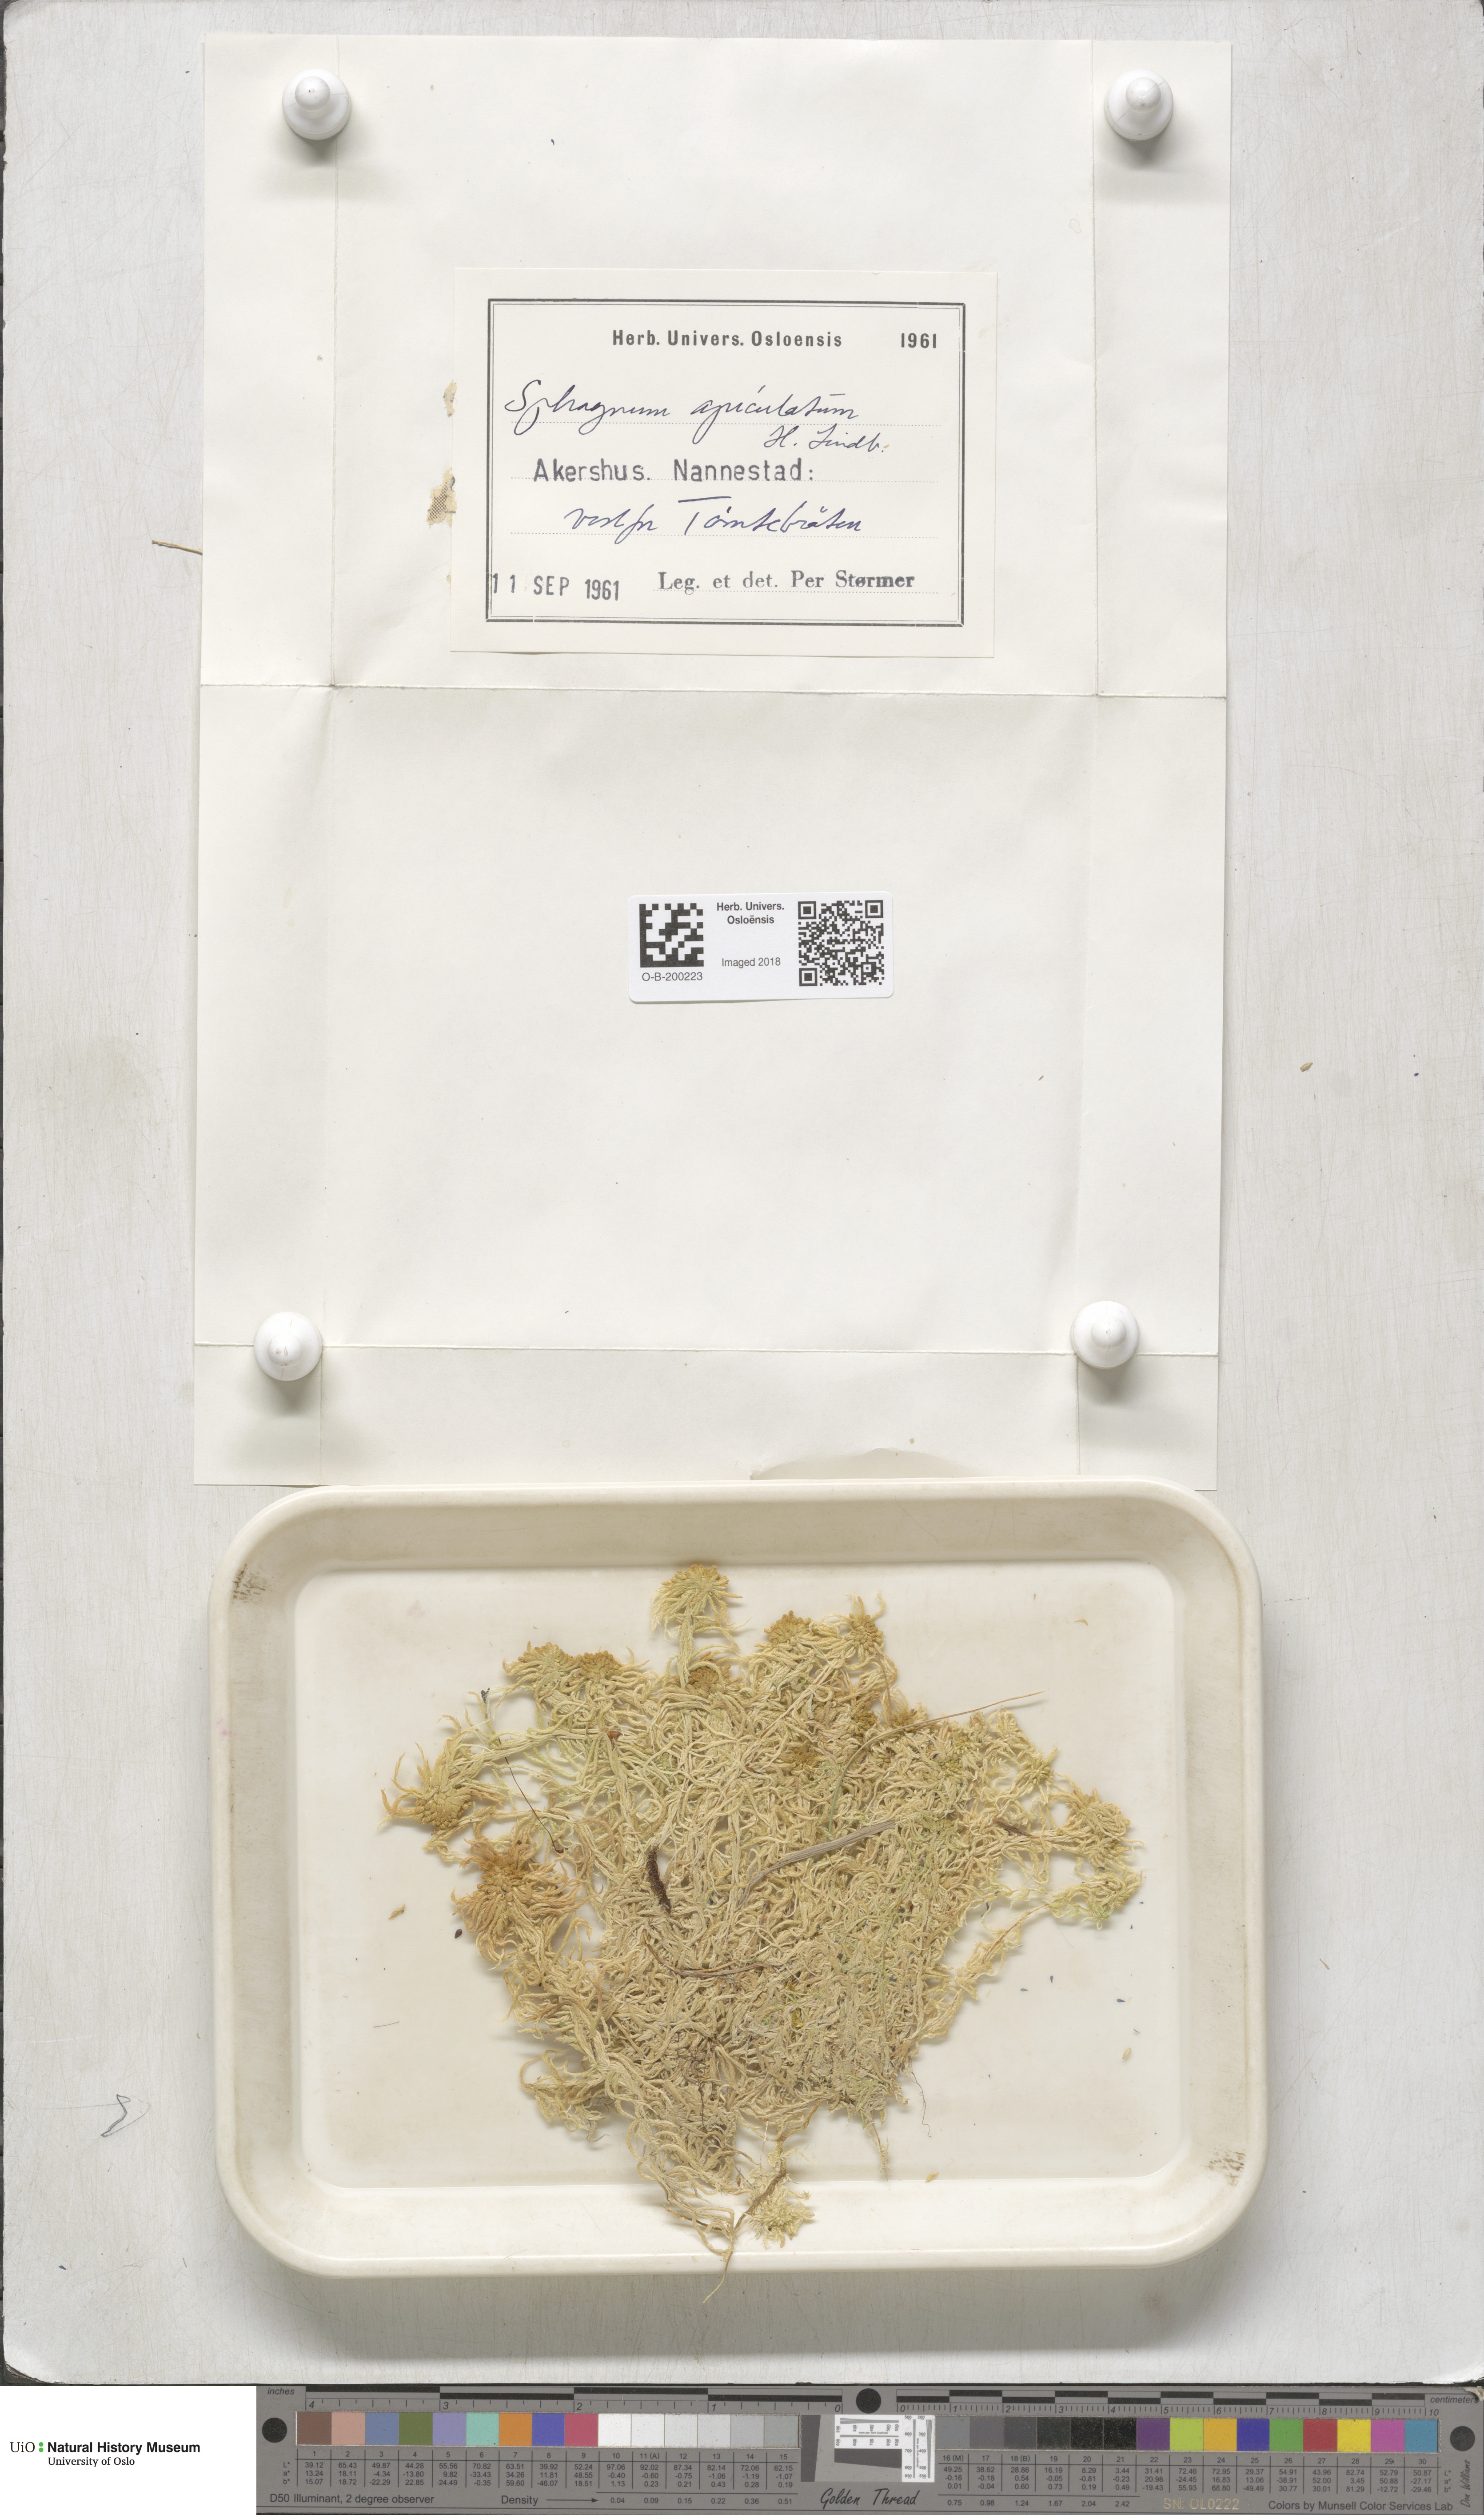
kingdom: Plantae
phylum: Bryophyta
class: Sphagnopsida
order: Sphagnales
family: Sphagnaceae
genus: Sphagnum
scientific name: Sphagnum fallax
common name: Flat-top peat moss
